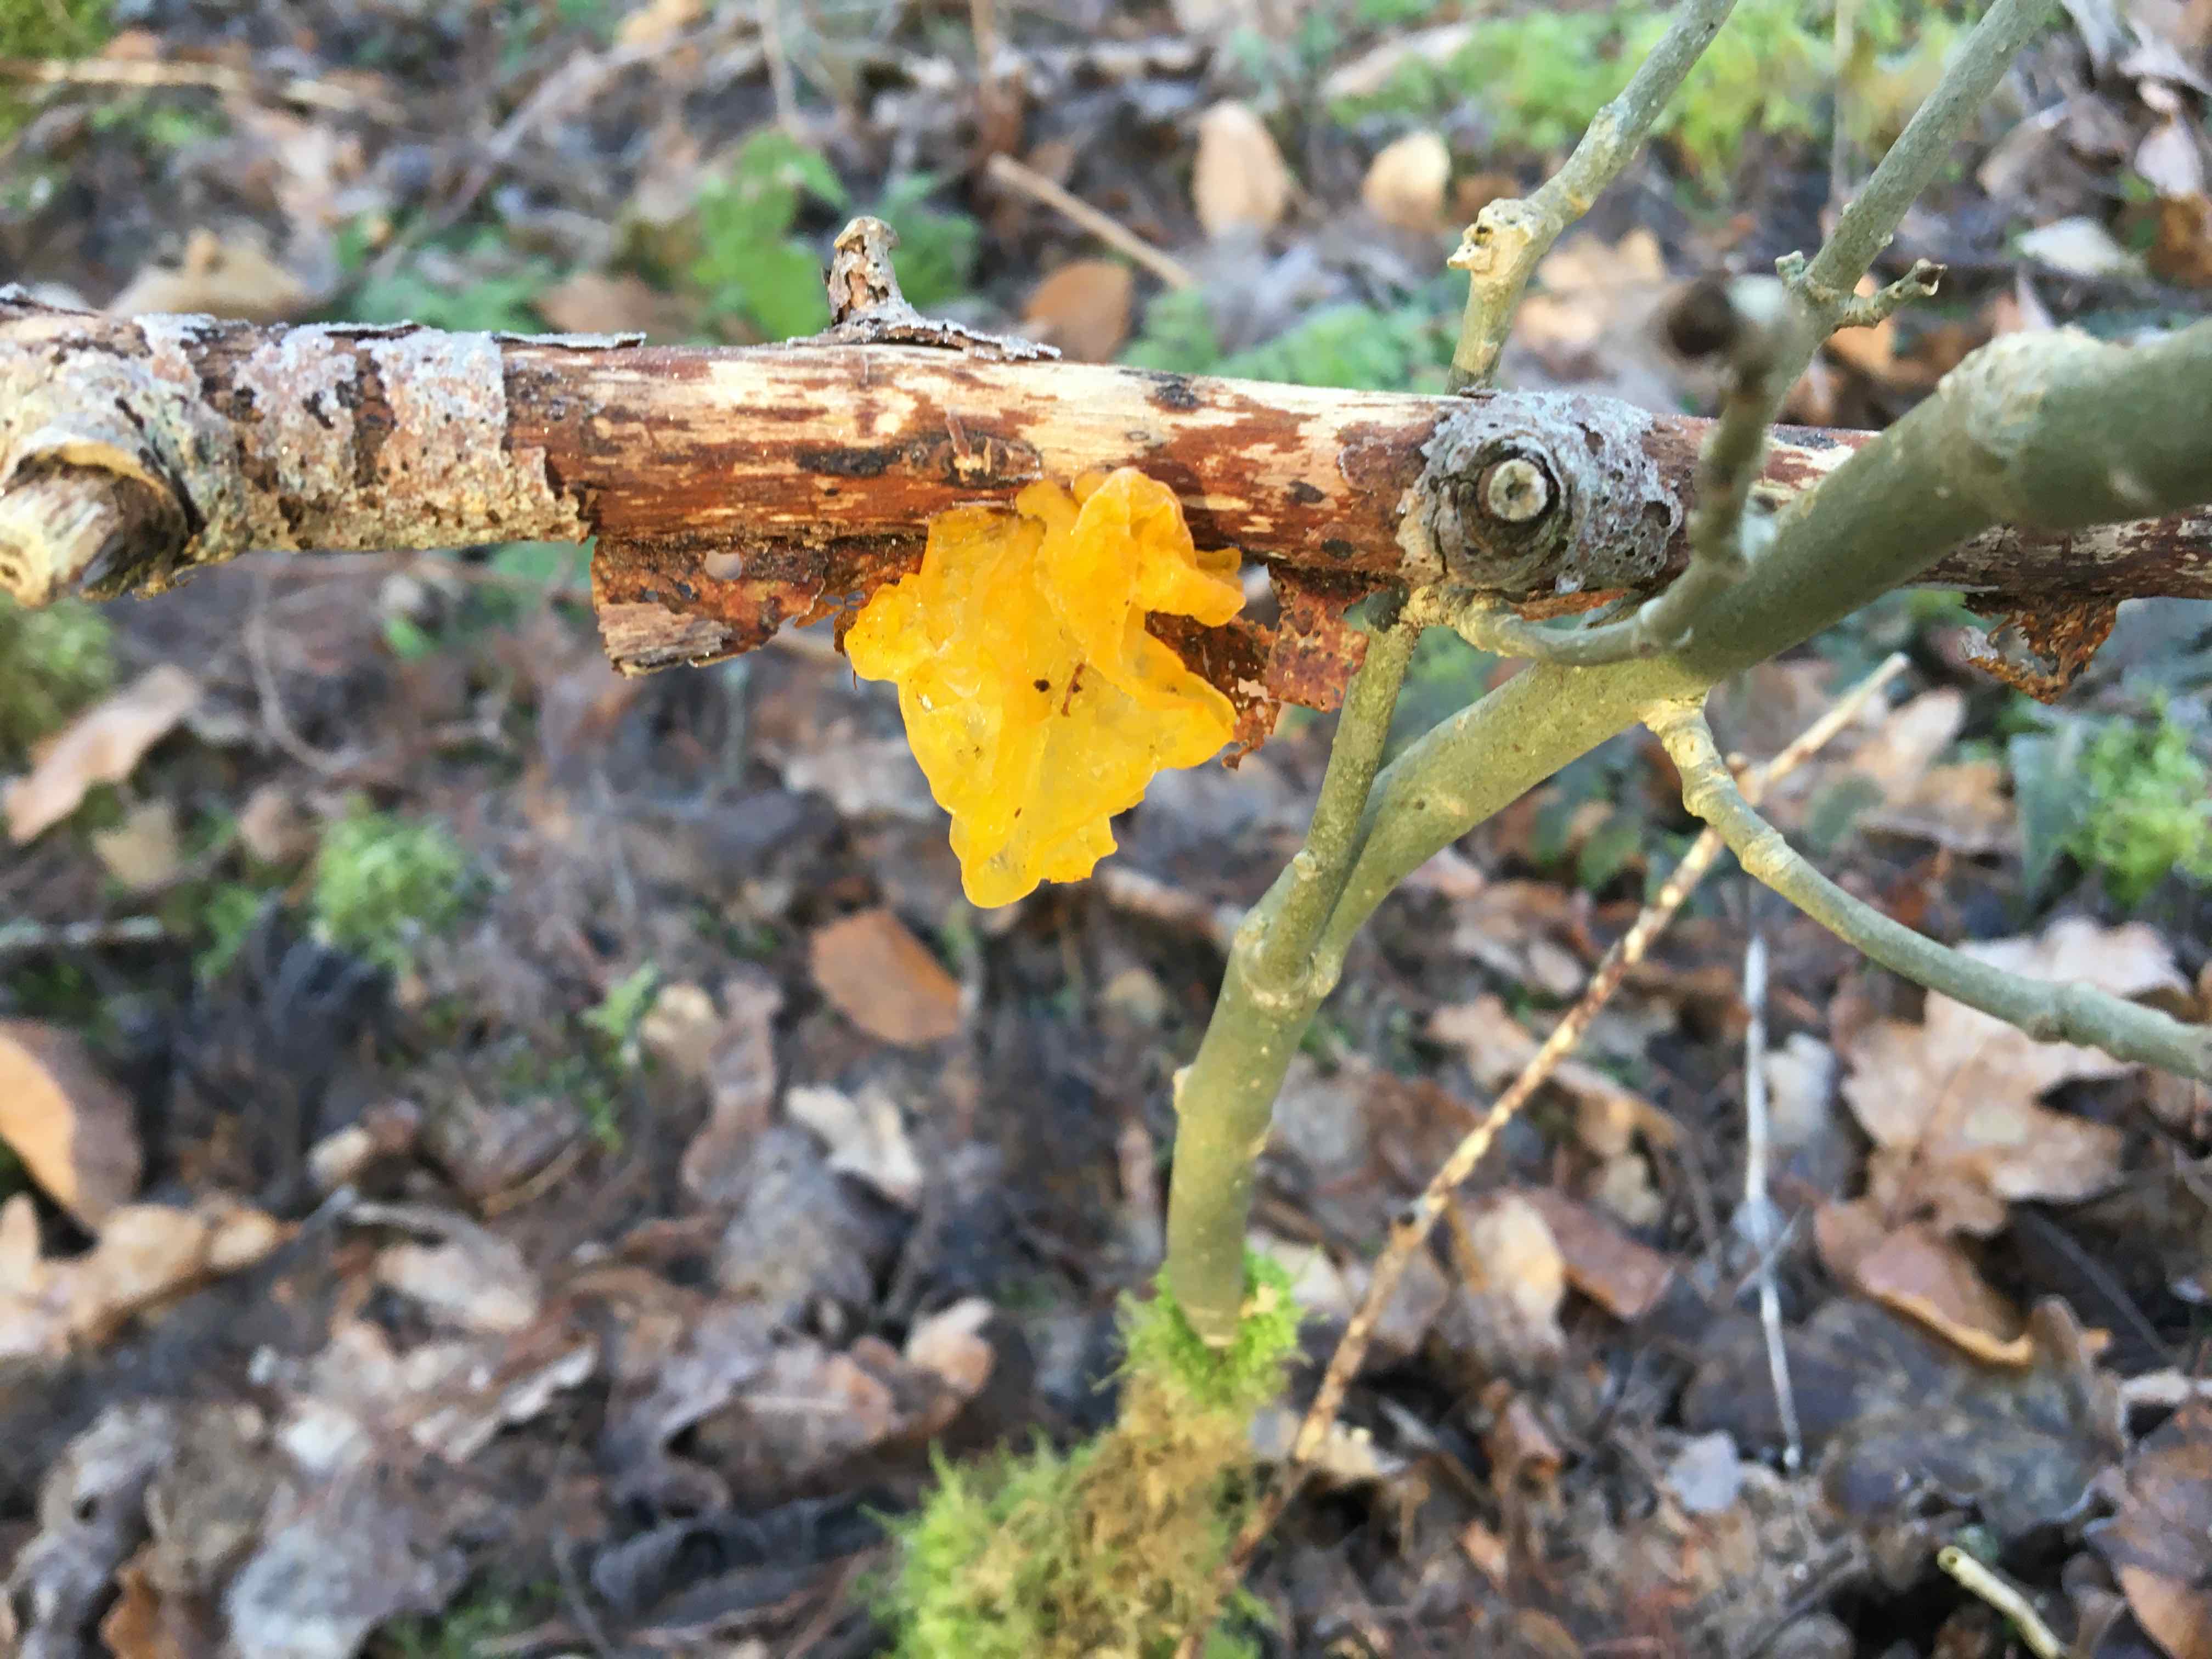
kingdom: Fungi
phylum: Basidiomycota
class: Tremellomycetes
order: Tremellales
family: Tremellaceae
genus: Tremella
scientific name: Tremella mesenterica
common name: gul bævresvamp
